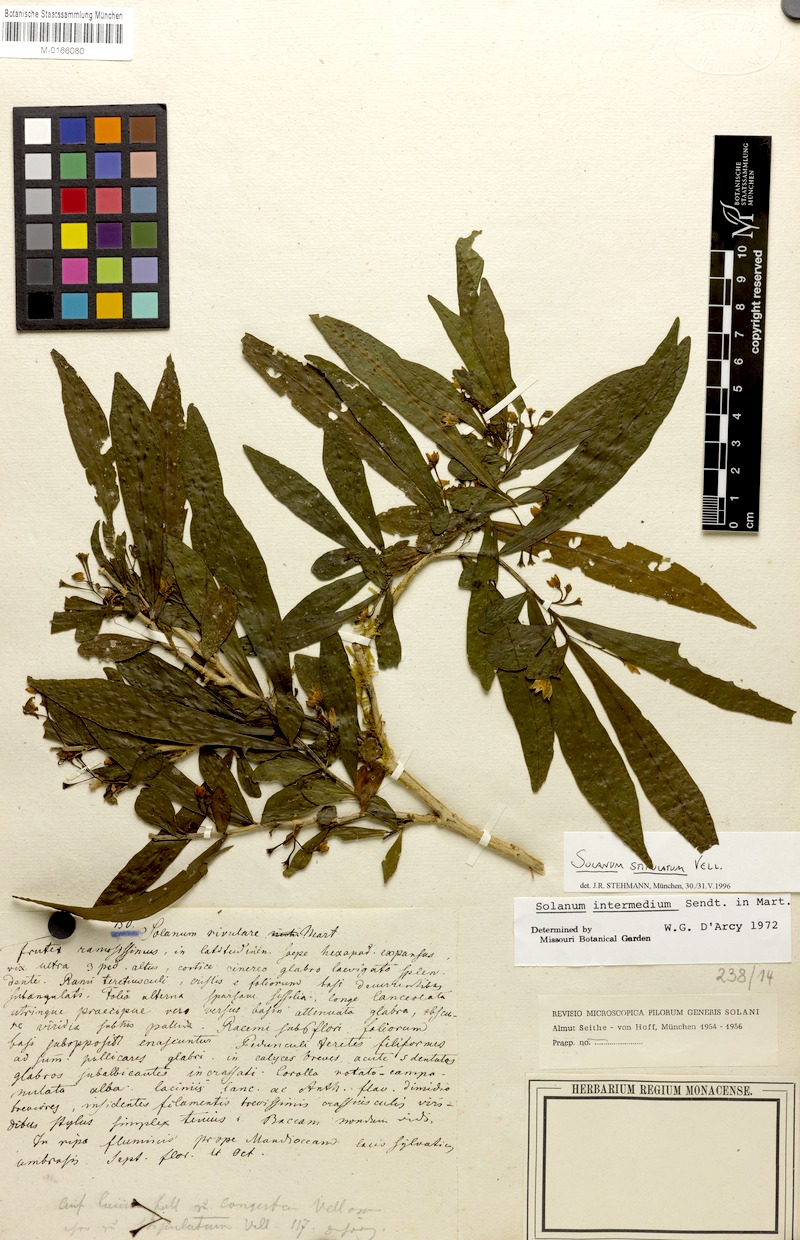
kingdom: Plantae
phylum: Tracheophyta
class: Magnoliopsida
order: Solanales
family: Solanaceae
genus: Solanum
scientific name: Solanum stipulatum
